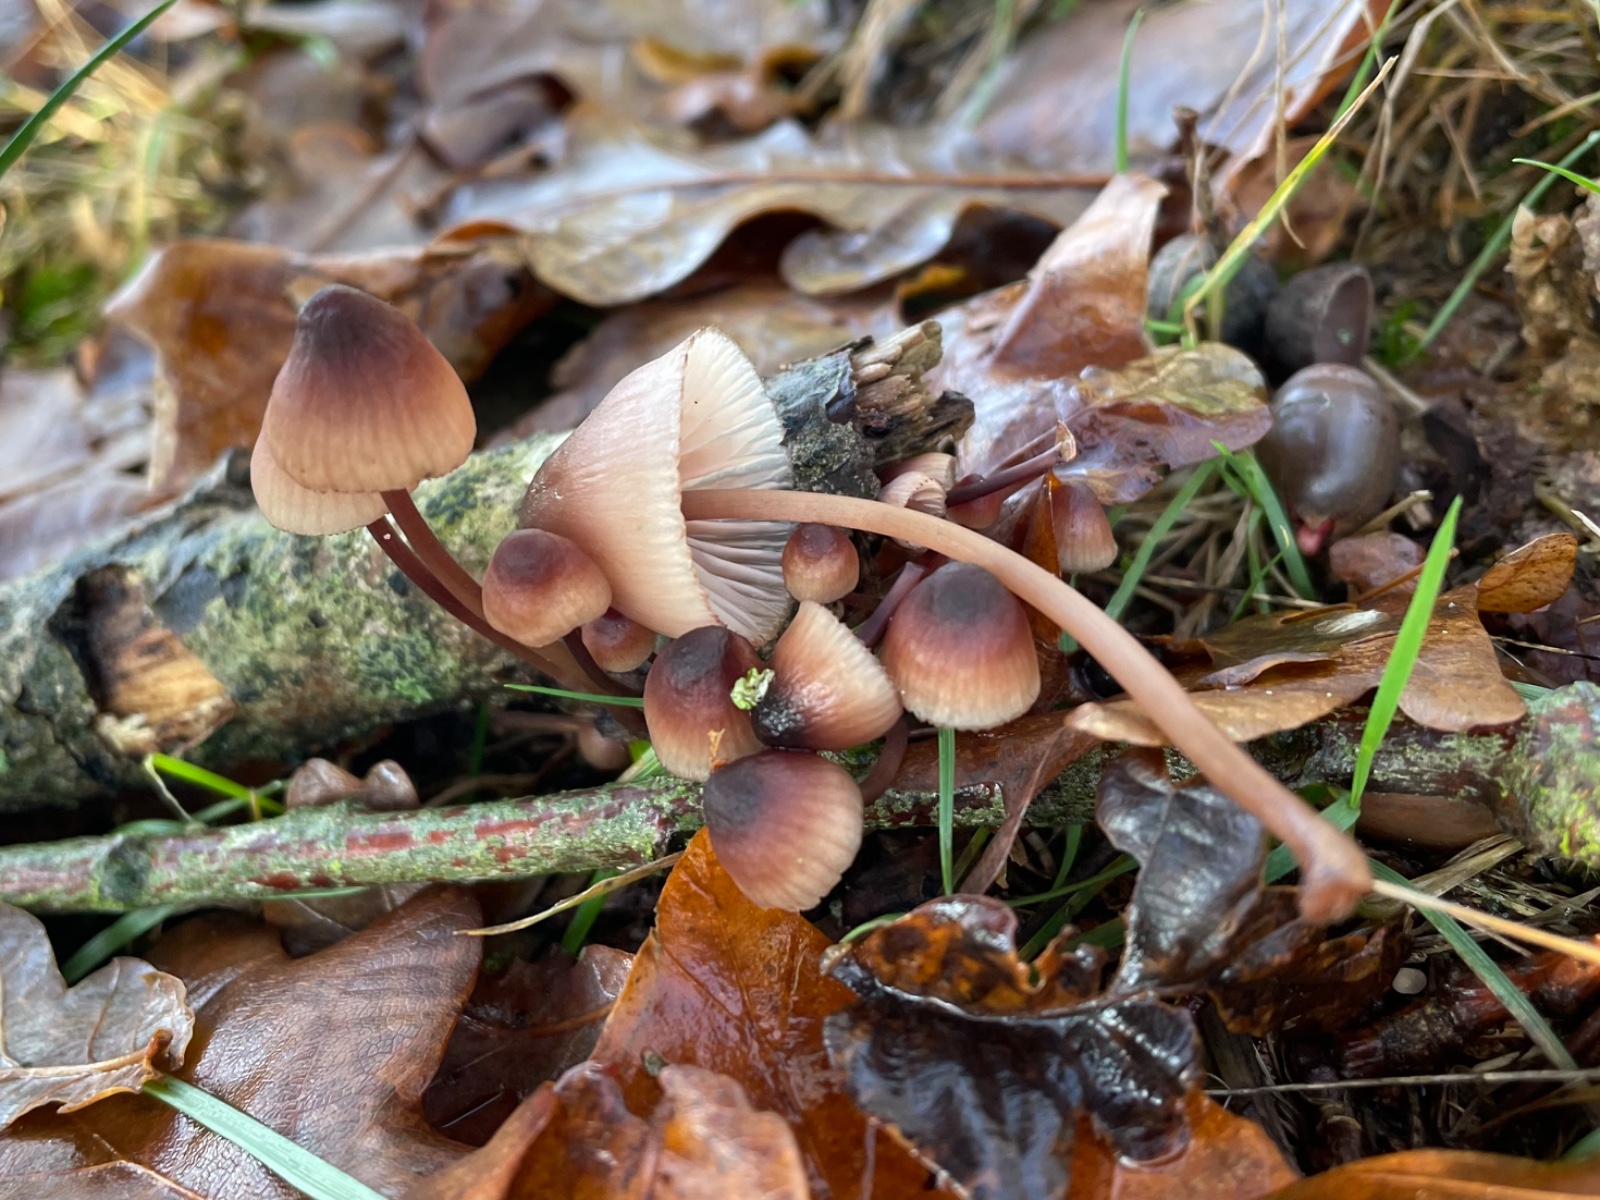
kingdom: Fungi
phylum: Basidiomycota
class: Agaricomycetes
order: Agaricales
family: Mycenaceae
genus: Mycena
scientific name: Mycena haematopus
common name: blødende huesvamp
